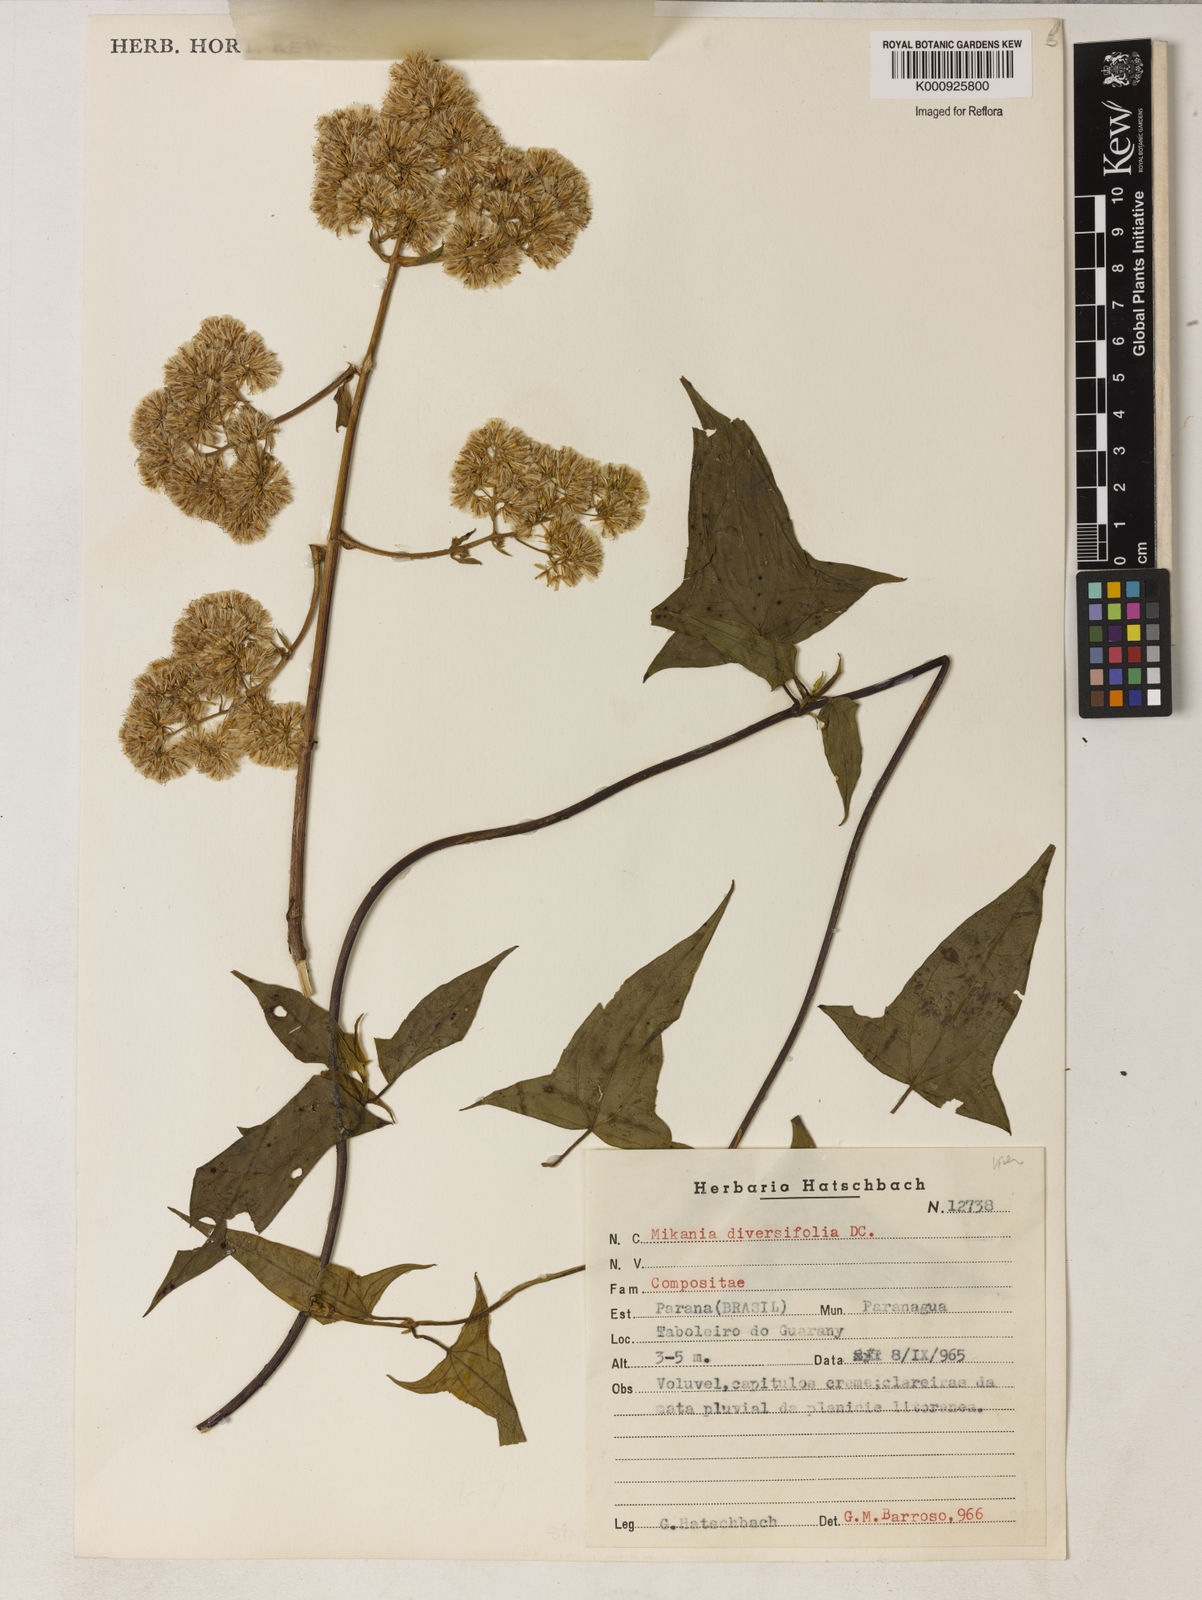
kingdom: Plantae
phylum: Tracheophyta
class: Magnoliopsida
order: Asterales
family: Asteraceae
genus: Mikania
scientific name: Mikania diversifolia
